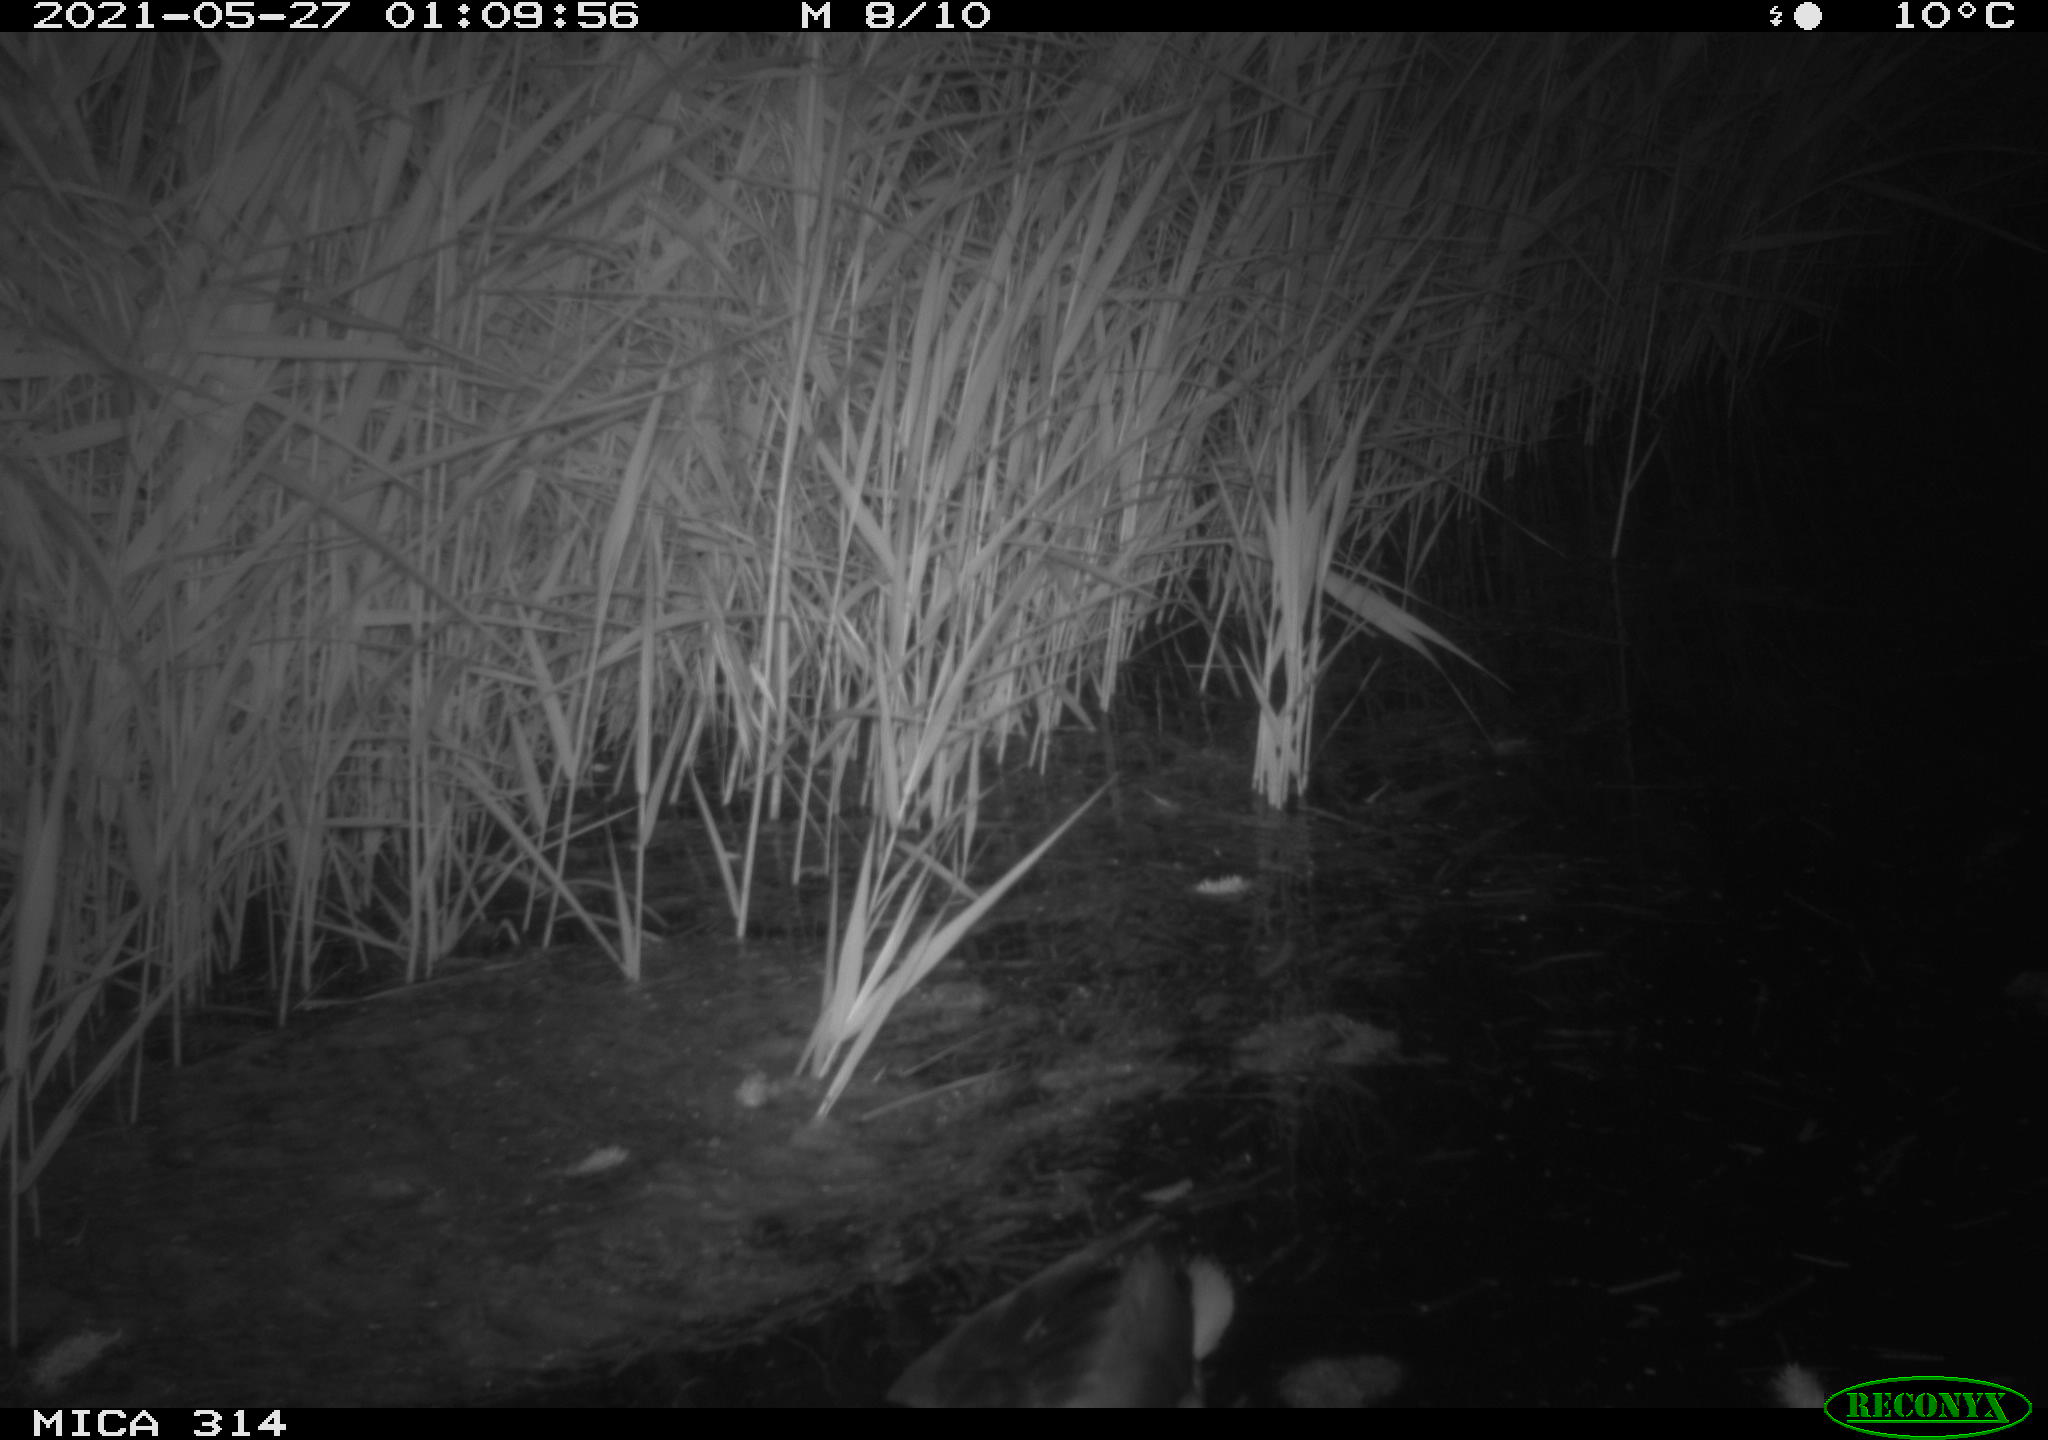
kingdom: Animalia
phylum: Chordata
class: Aves
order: Anseriformes
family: Anatidae
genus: Anas
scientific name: Anas platyrhynchos
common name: Mallard
